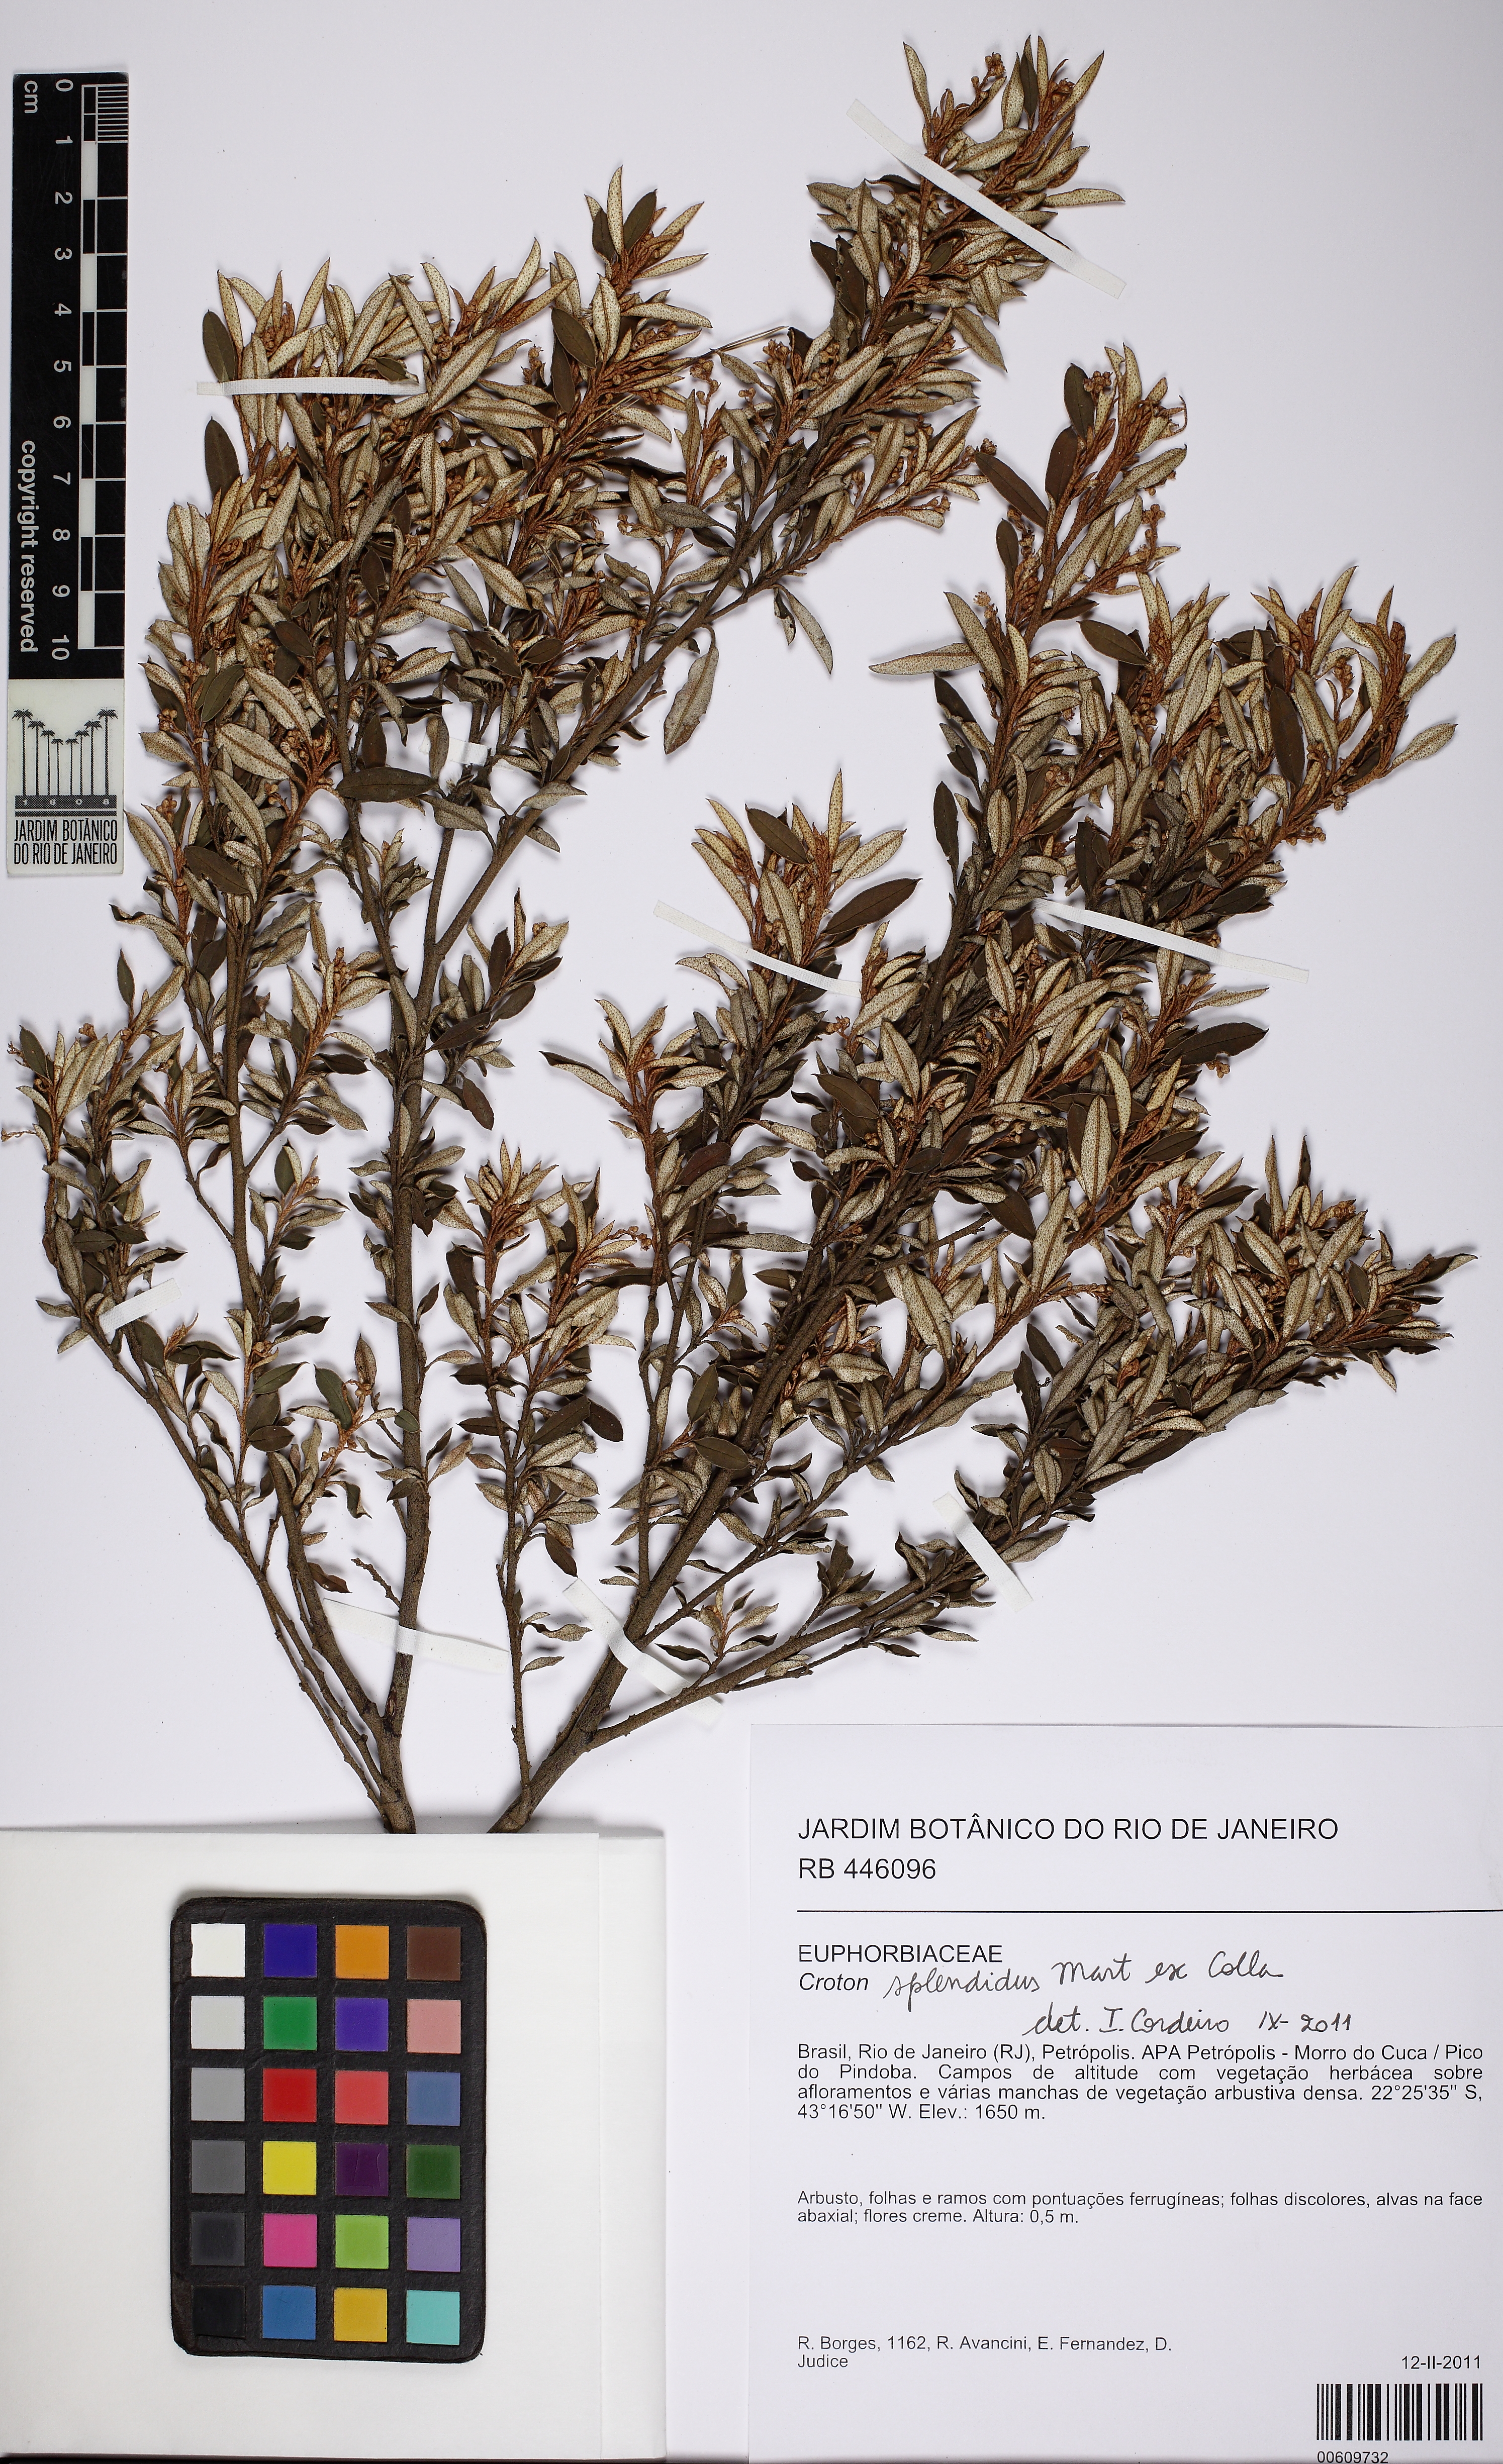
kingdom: Plantae
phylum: Tracheophyta
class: Magnoliopsida
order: Malpighiales
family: Euphorbiaceae
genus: Croton
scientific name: Croton splendidus
